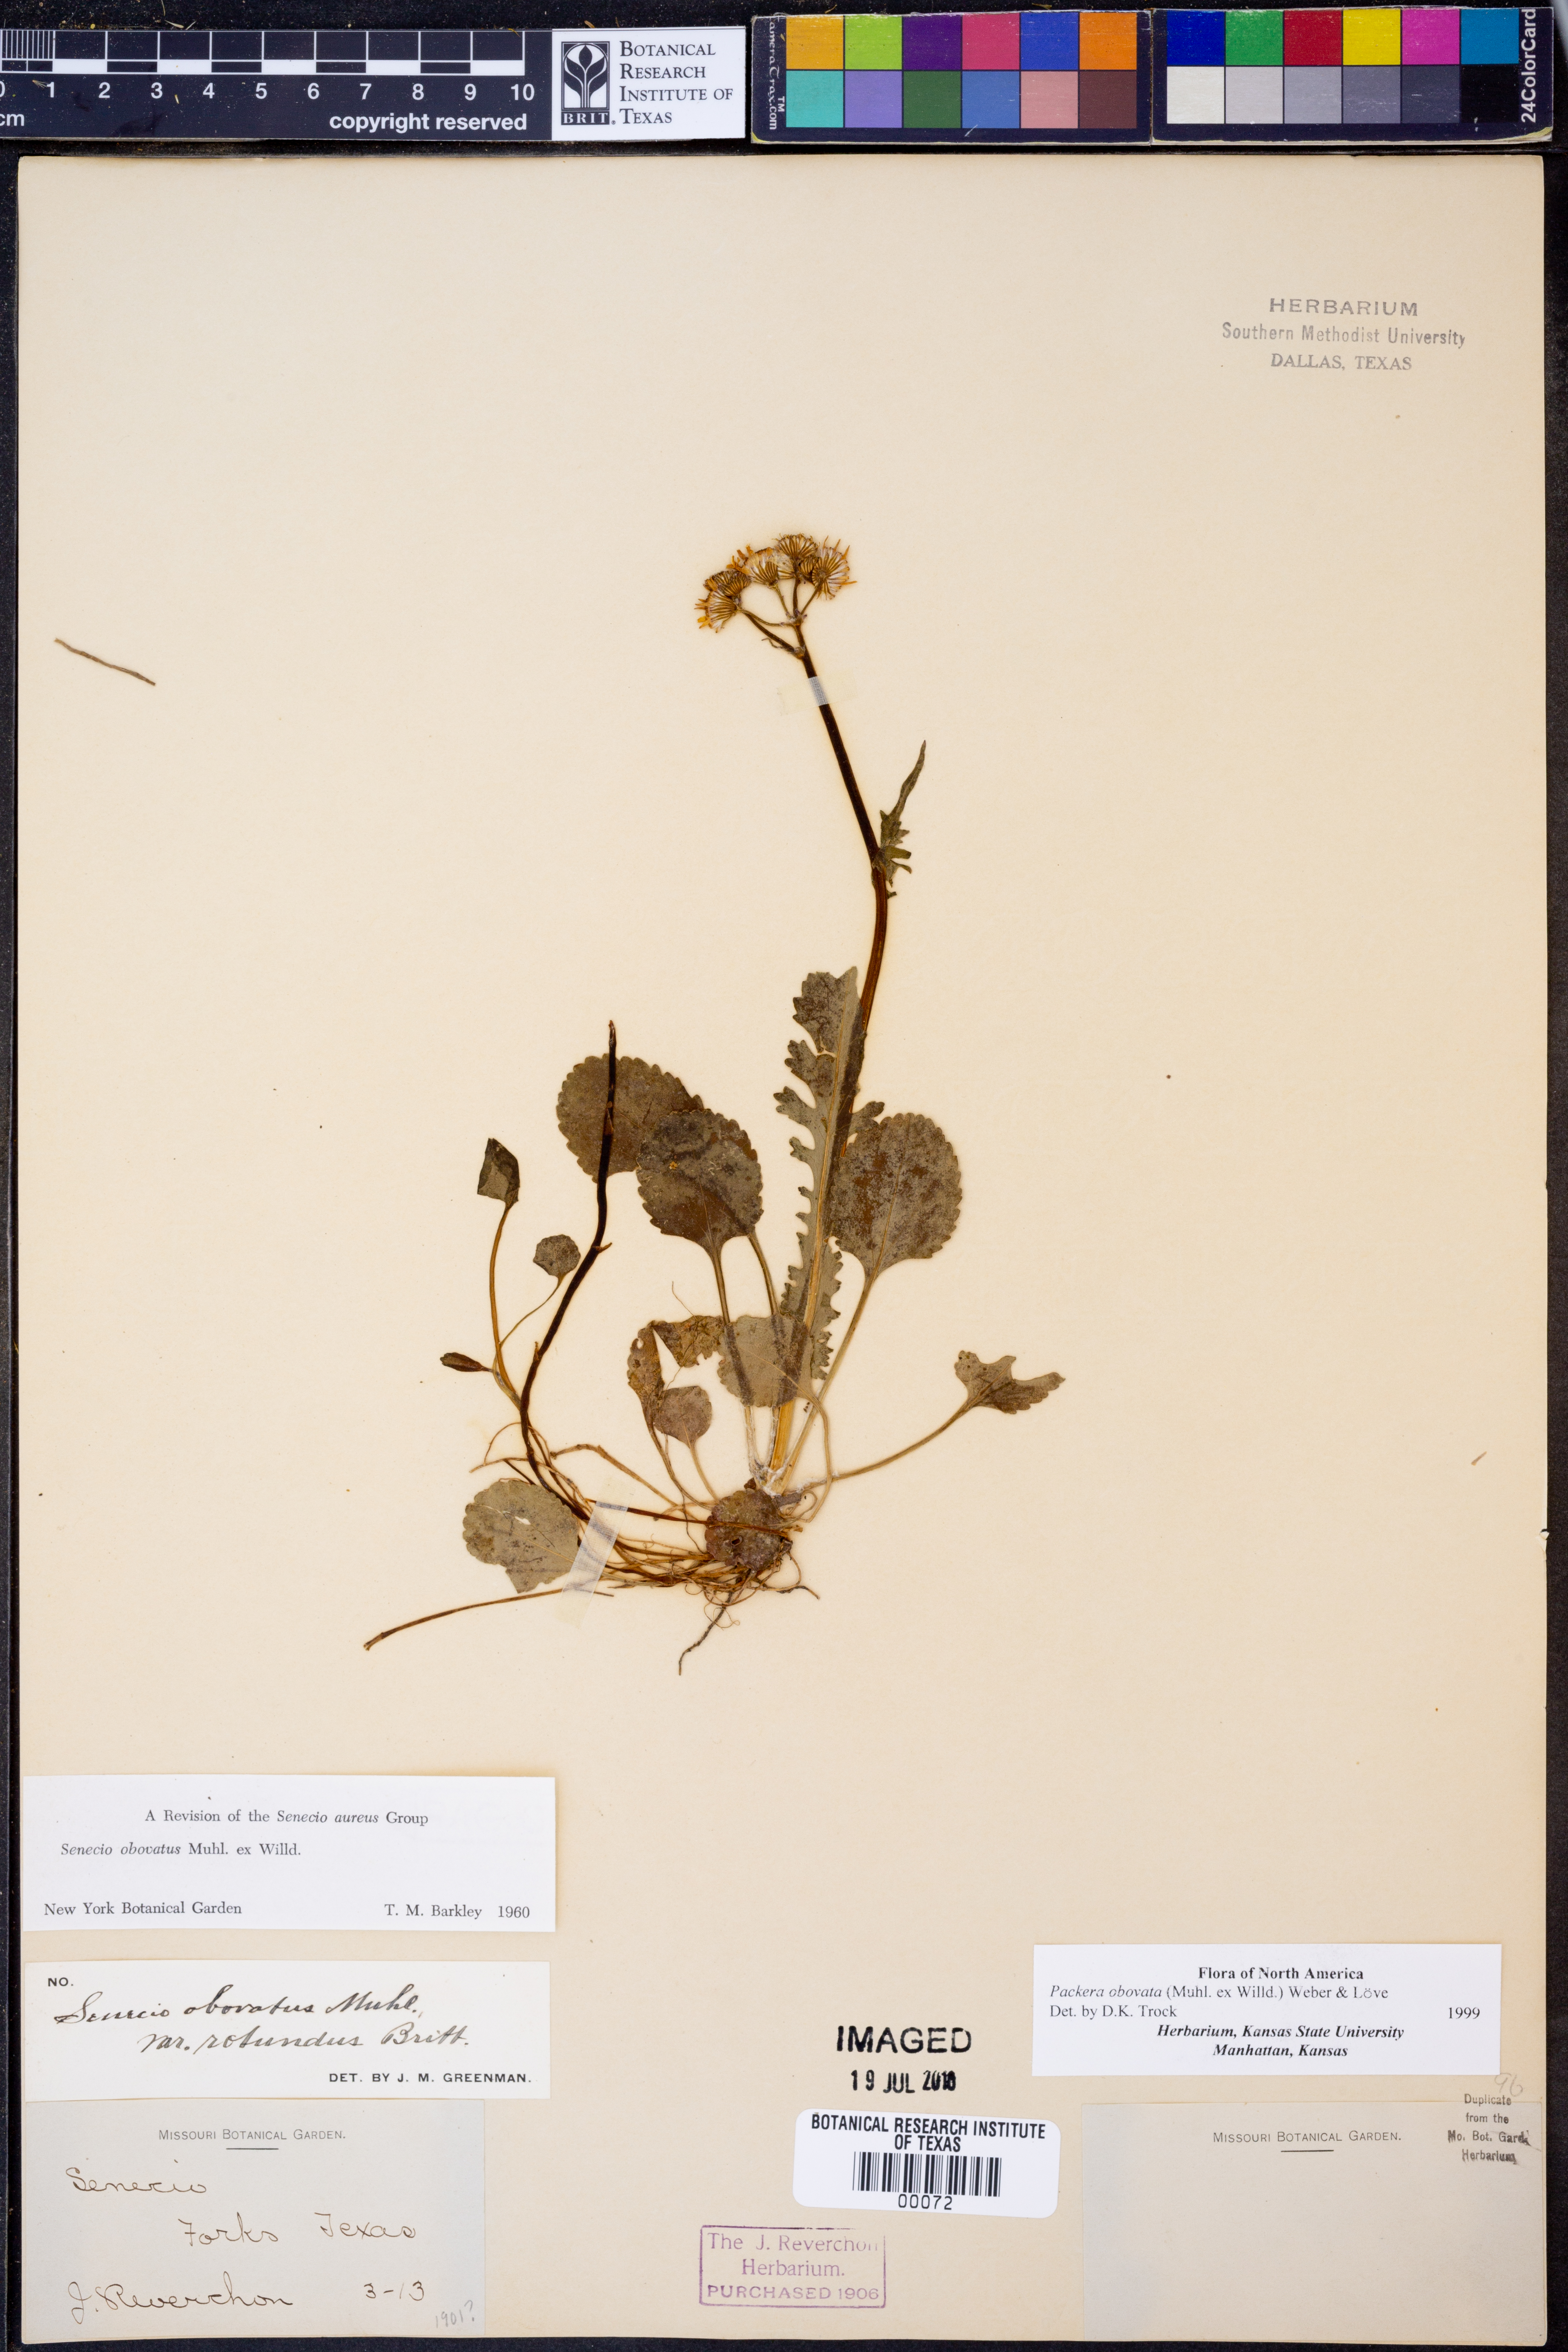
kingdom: Plantae
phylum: Tracheophyta
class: Magnoliopsida
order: Asterales
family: Asteraceae
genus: Packera
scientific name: Packera obovata
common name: Round-leaf ragwort
